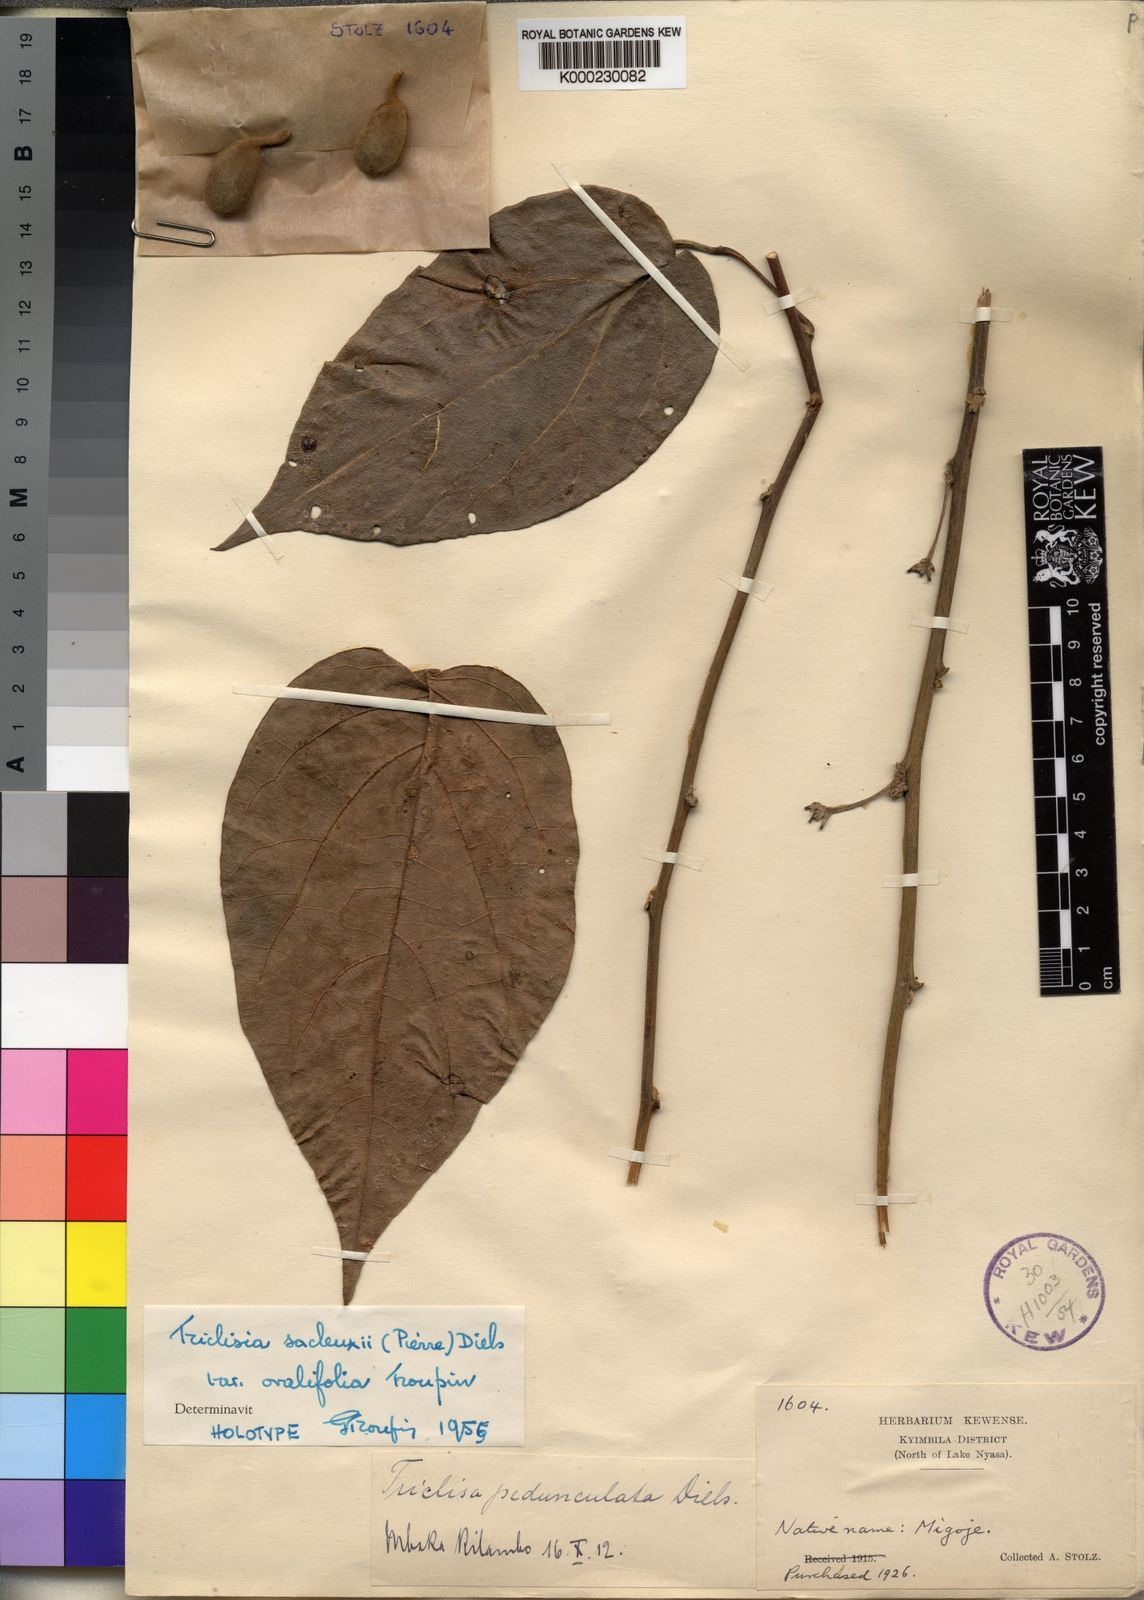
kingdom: Plantae
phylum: Tracheophyta
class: Magnoliopsida
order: Ranunculales
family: Menispermaceae
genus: Triclisia
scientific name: Triclisia sacleuxii
